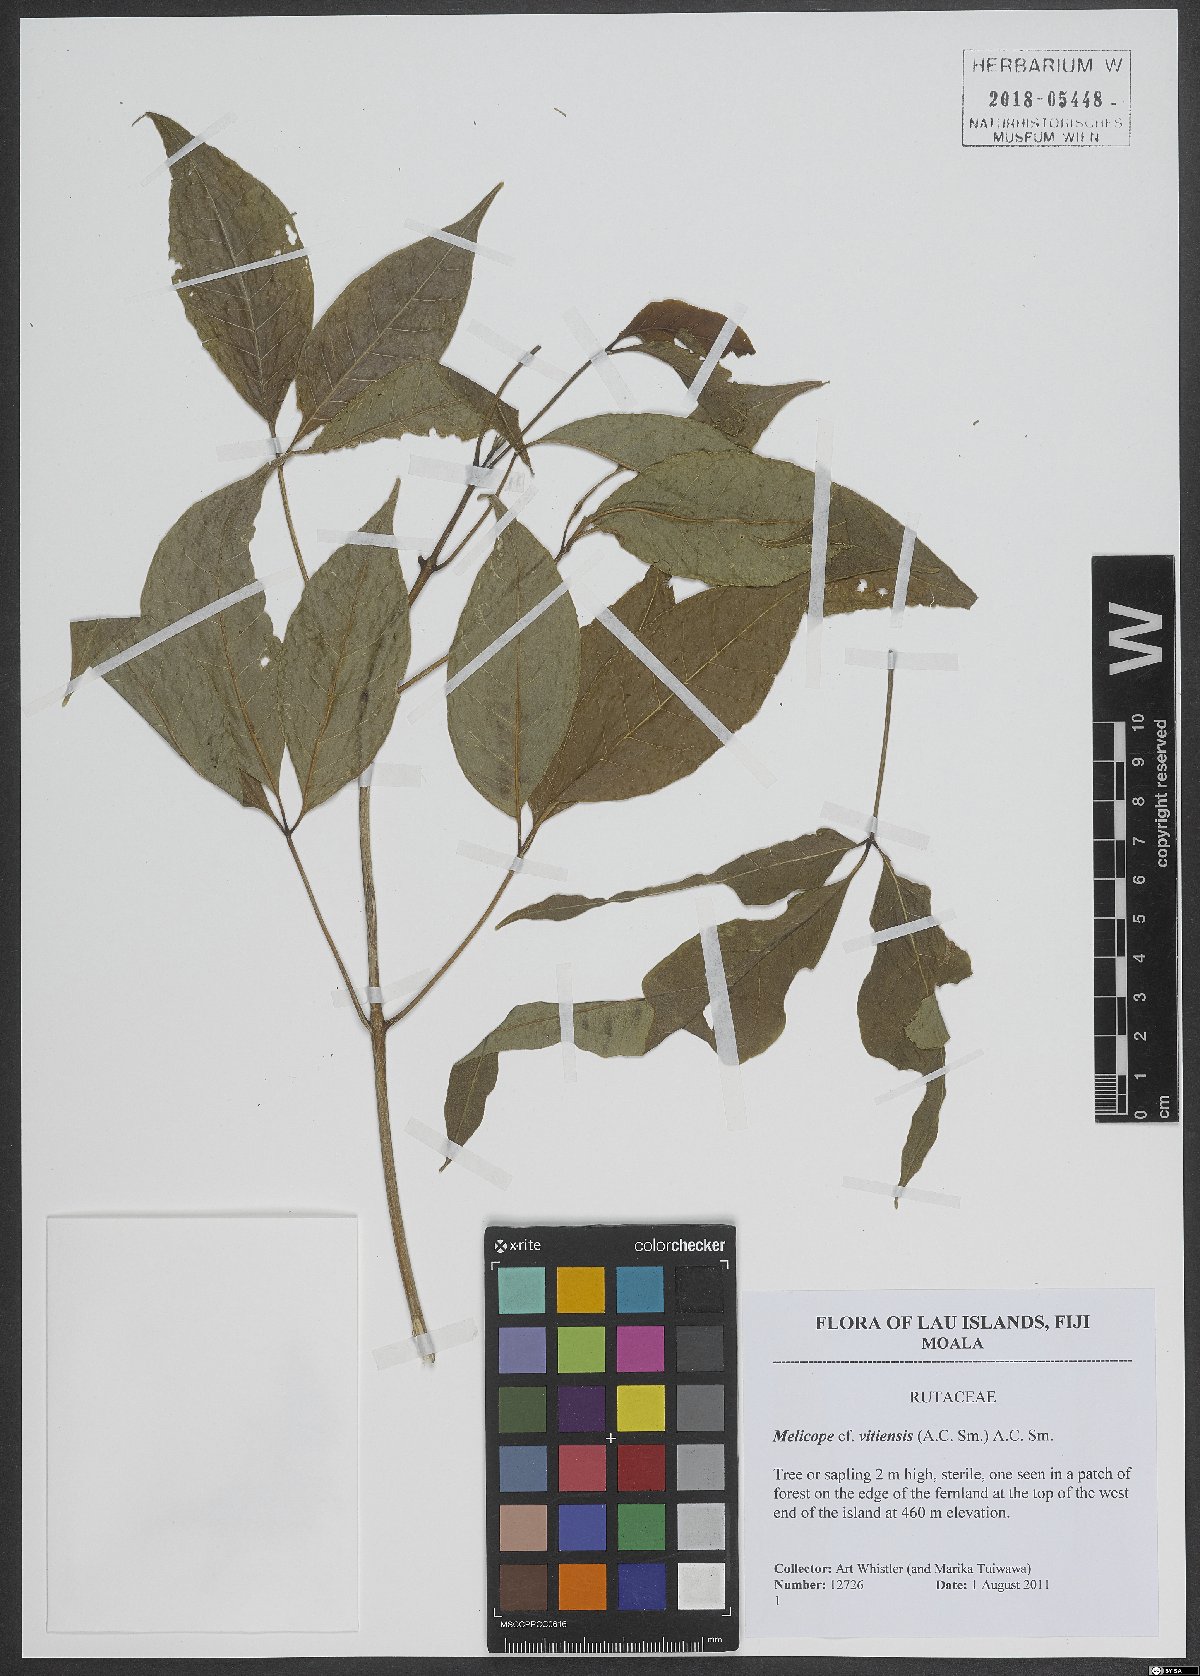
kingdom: Plantae
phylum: Tracheophyta
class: Magnoliopsida
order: Sapindales
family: Rutaceae
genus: Melicope
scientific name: Melicope cucullata
